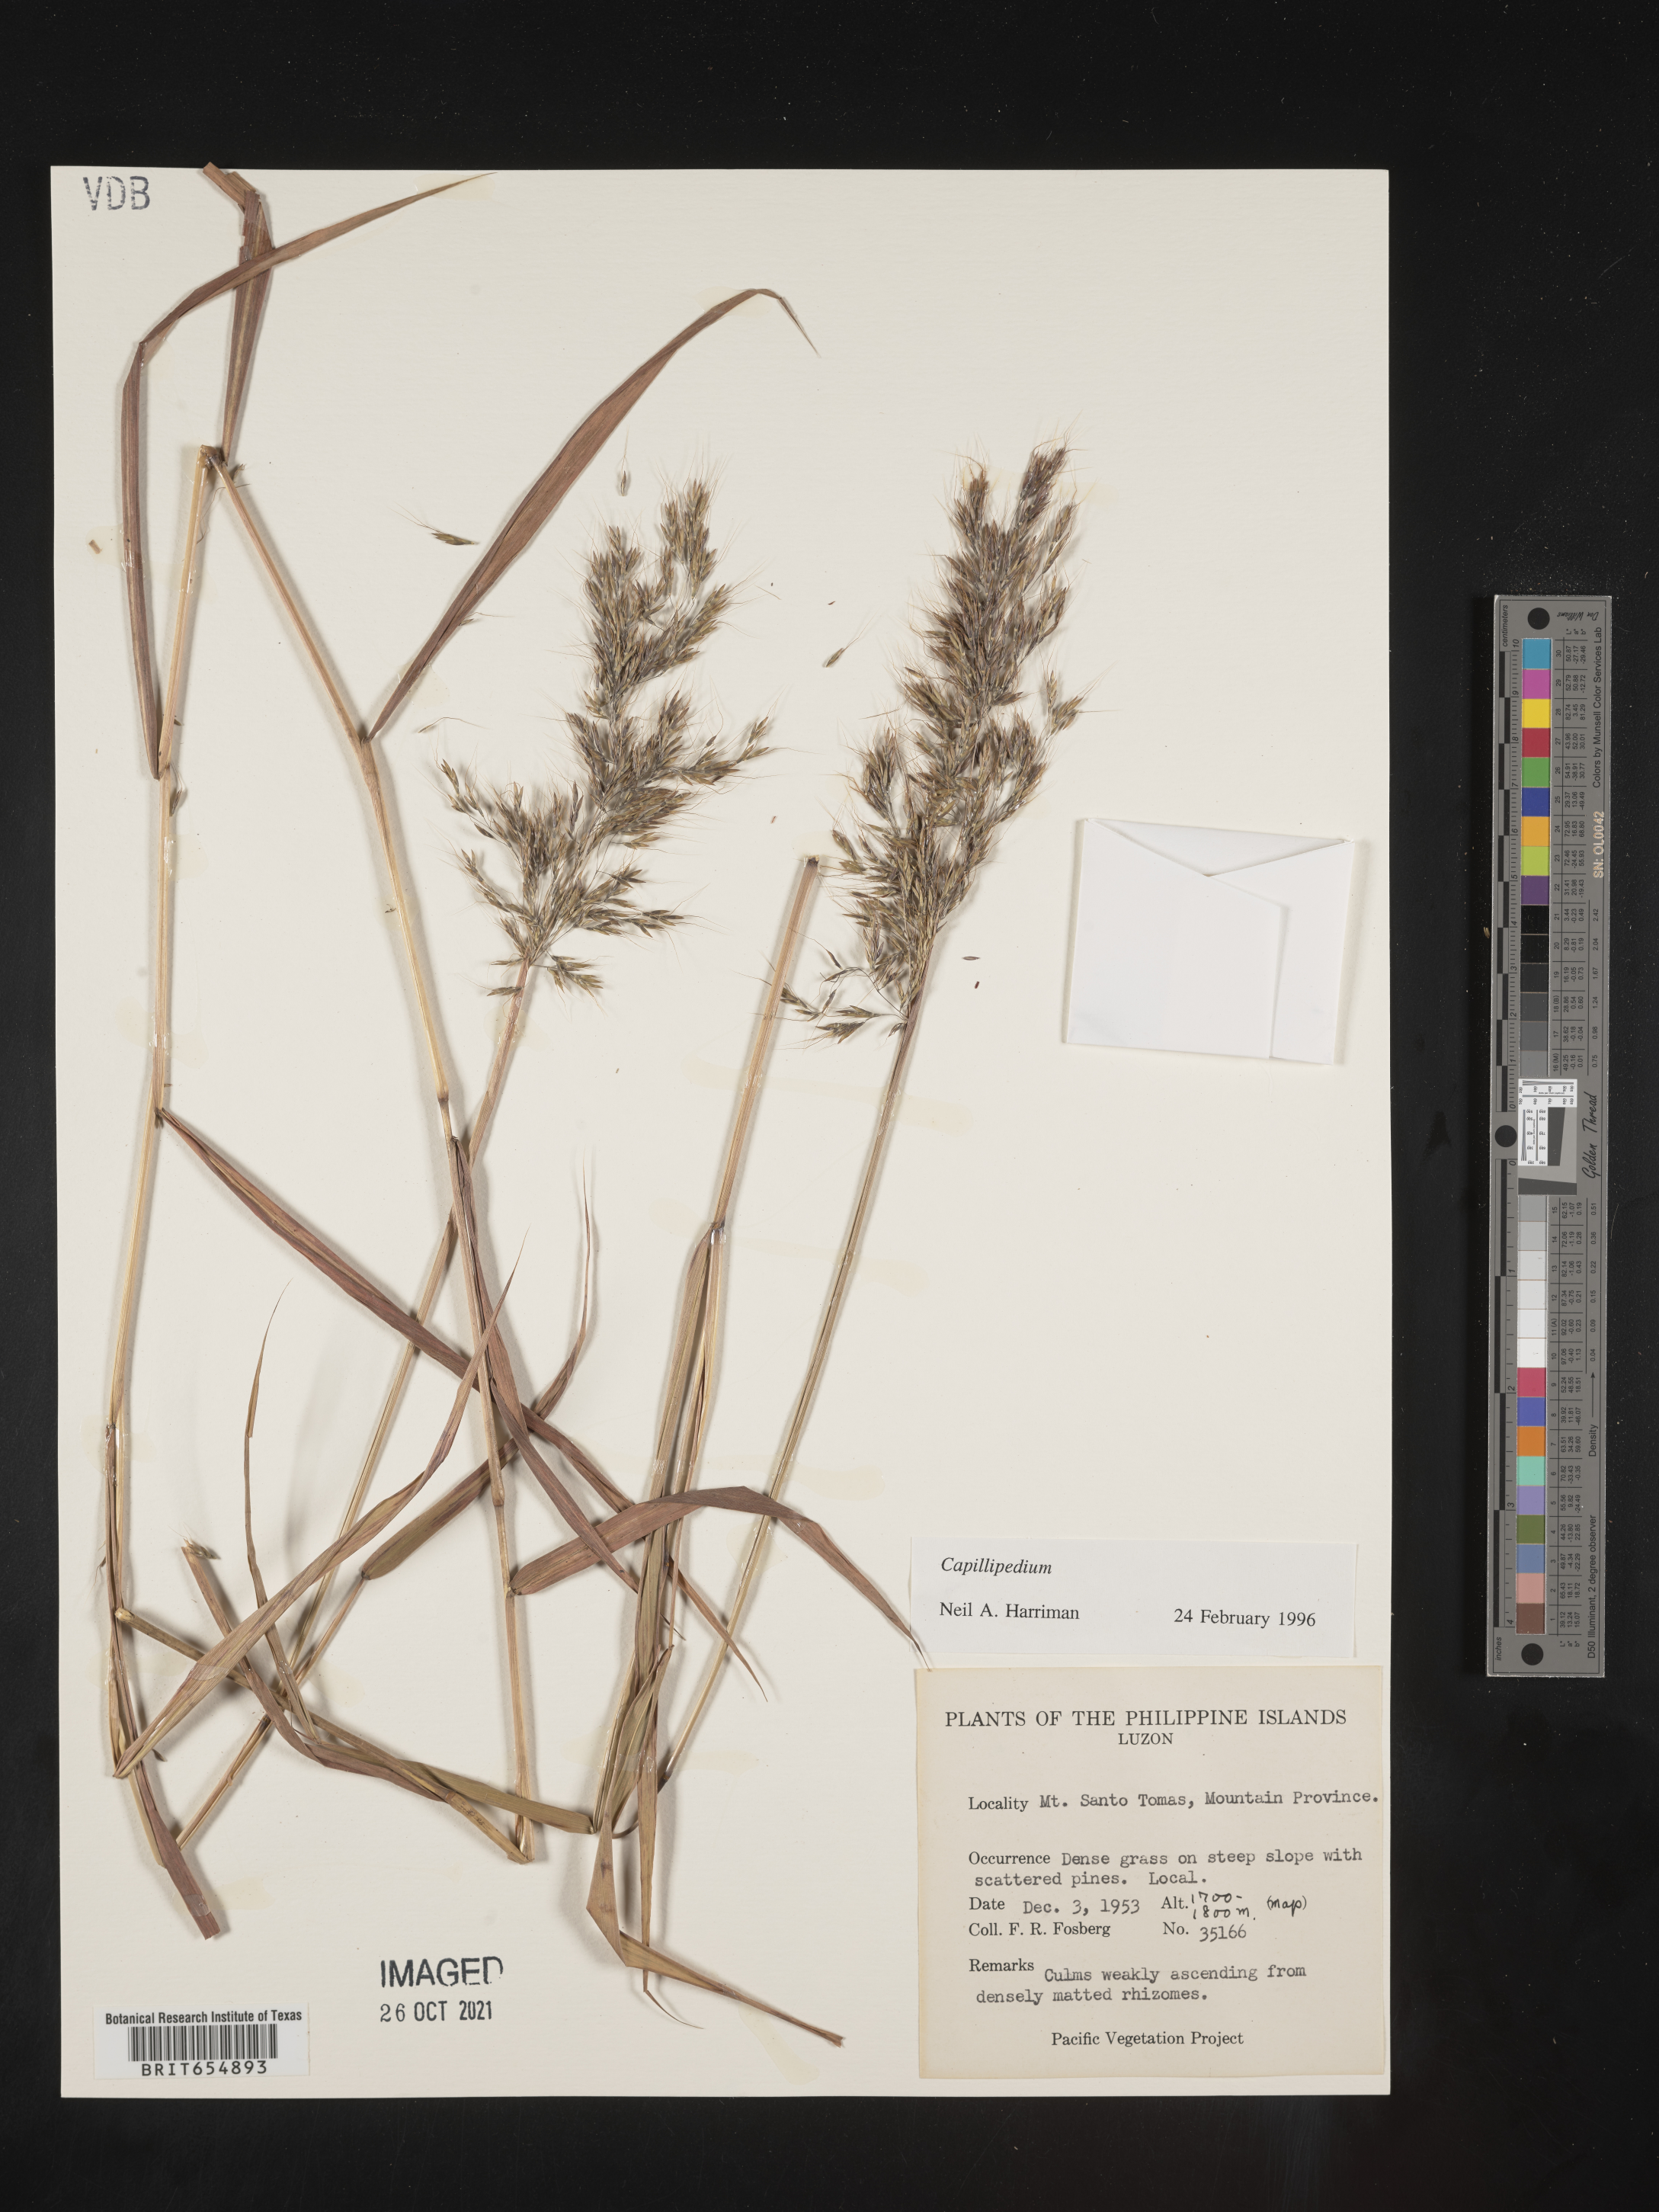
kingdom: Plantae
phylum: Tracheophyta
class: Liliopsida
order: Poales
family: Poaceae
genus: Capillipedium
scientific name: Capillipedium
